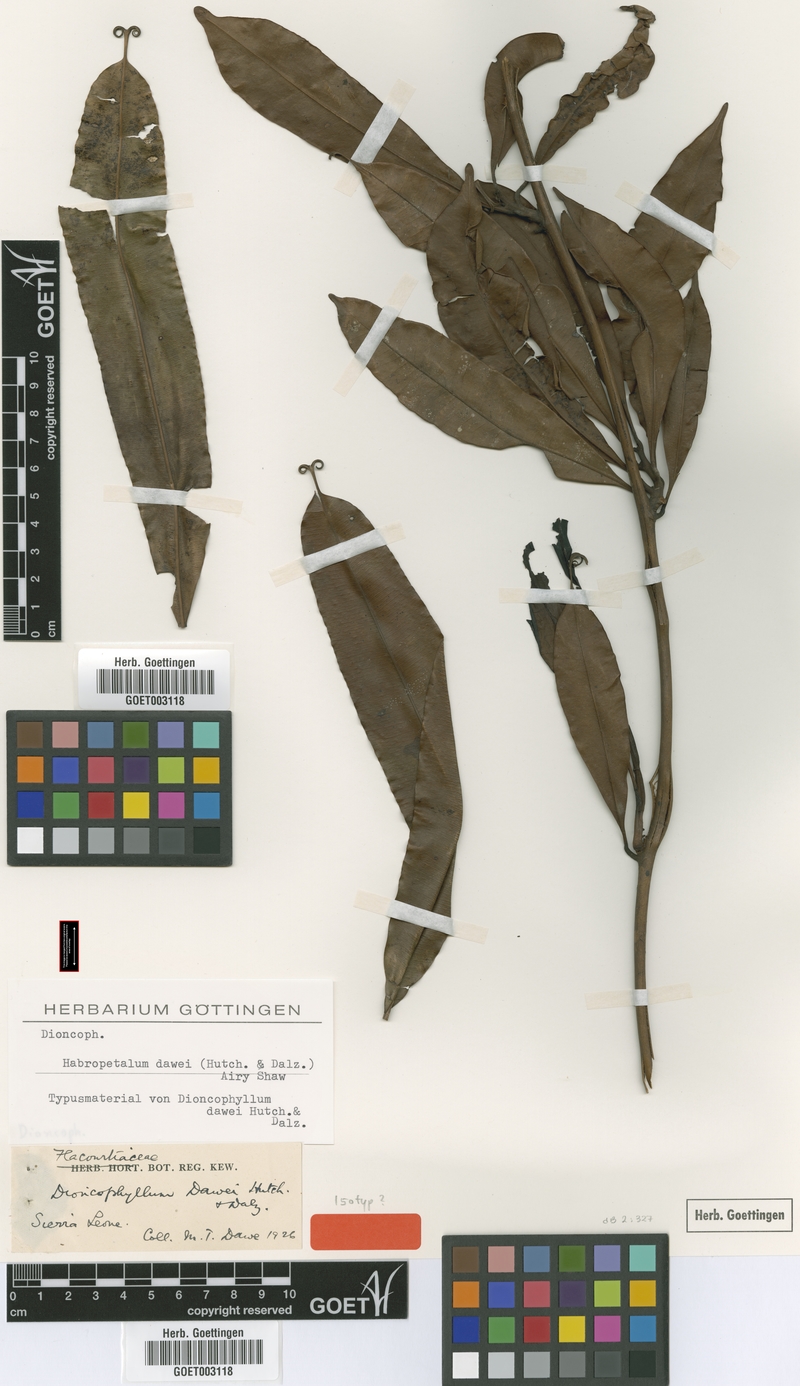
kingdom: Plantae
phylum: Tracheophyta
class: Magnoliopsida
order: Caryophyllales
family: Dioncophyllaceae
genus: Habropetalum
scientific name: Habropetalum dawei
